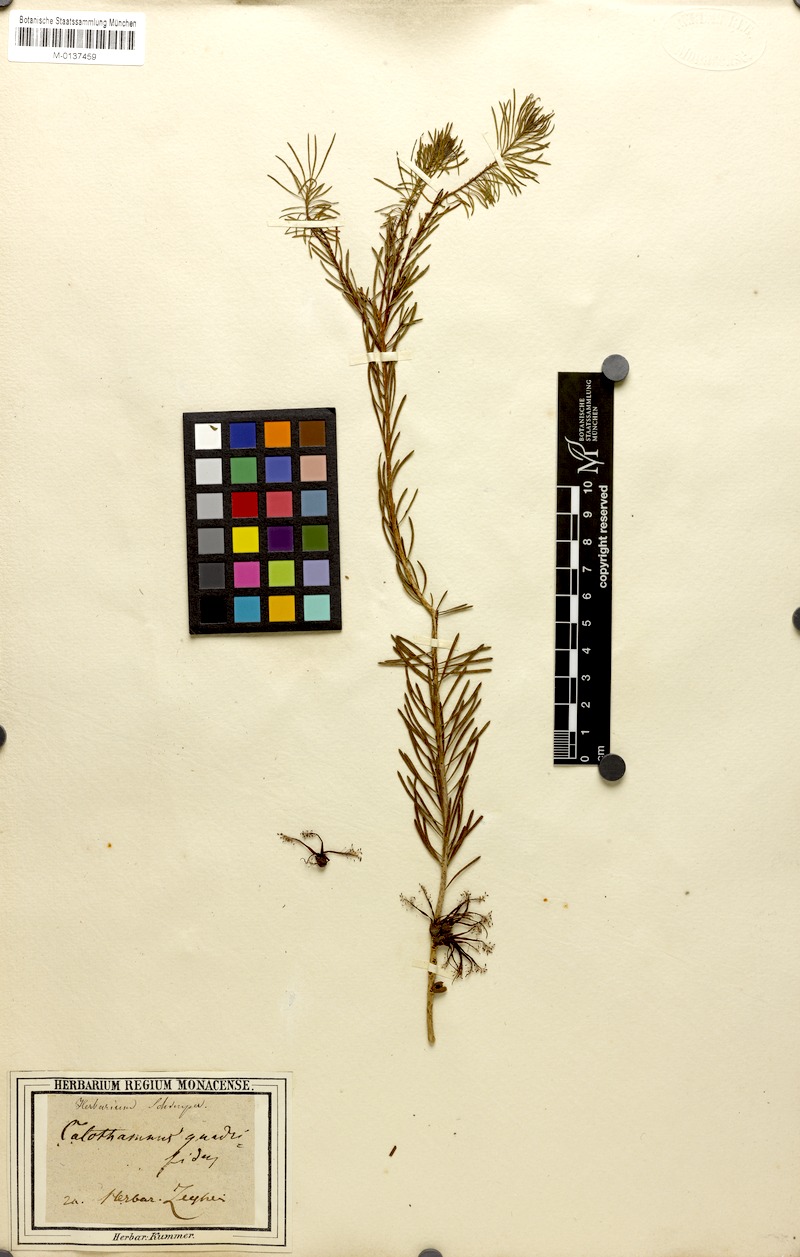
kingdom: Plantae
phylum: Tracheophyta
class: Magnoliopsida
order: Myrtales
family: Myrtaceae
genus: Melaleuca
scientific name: Melaleuca quadrifida
